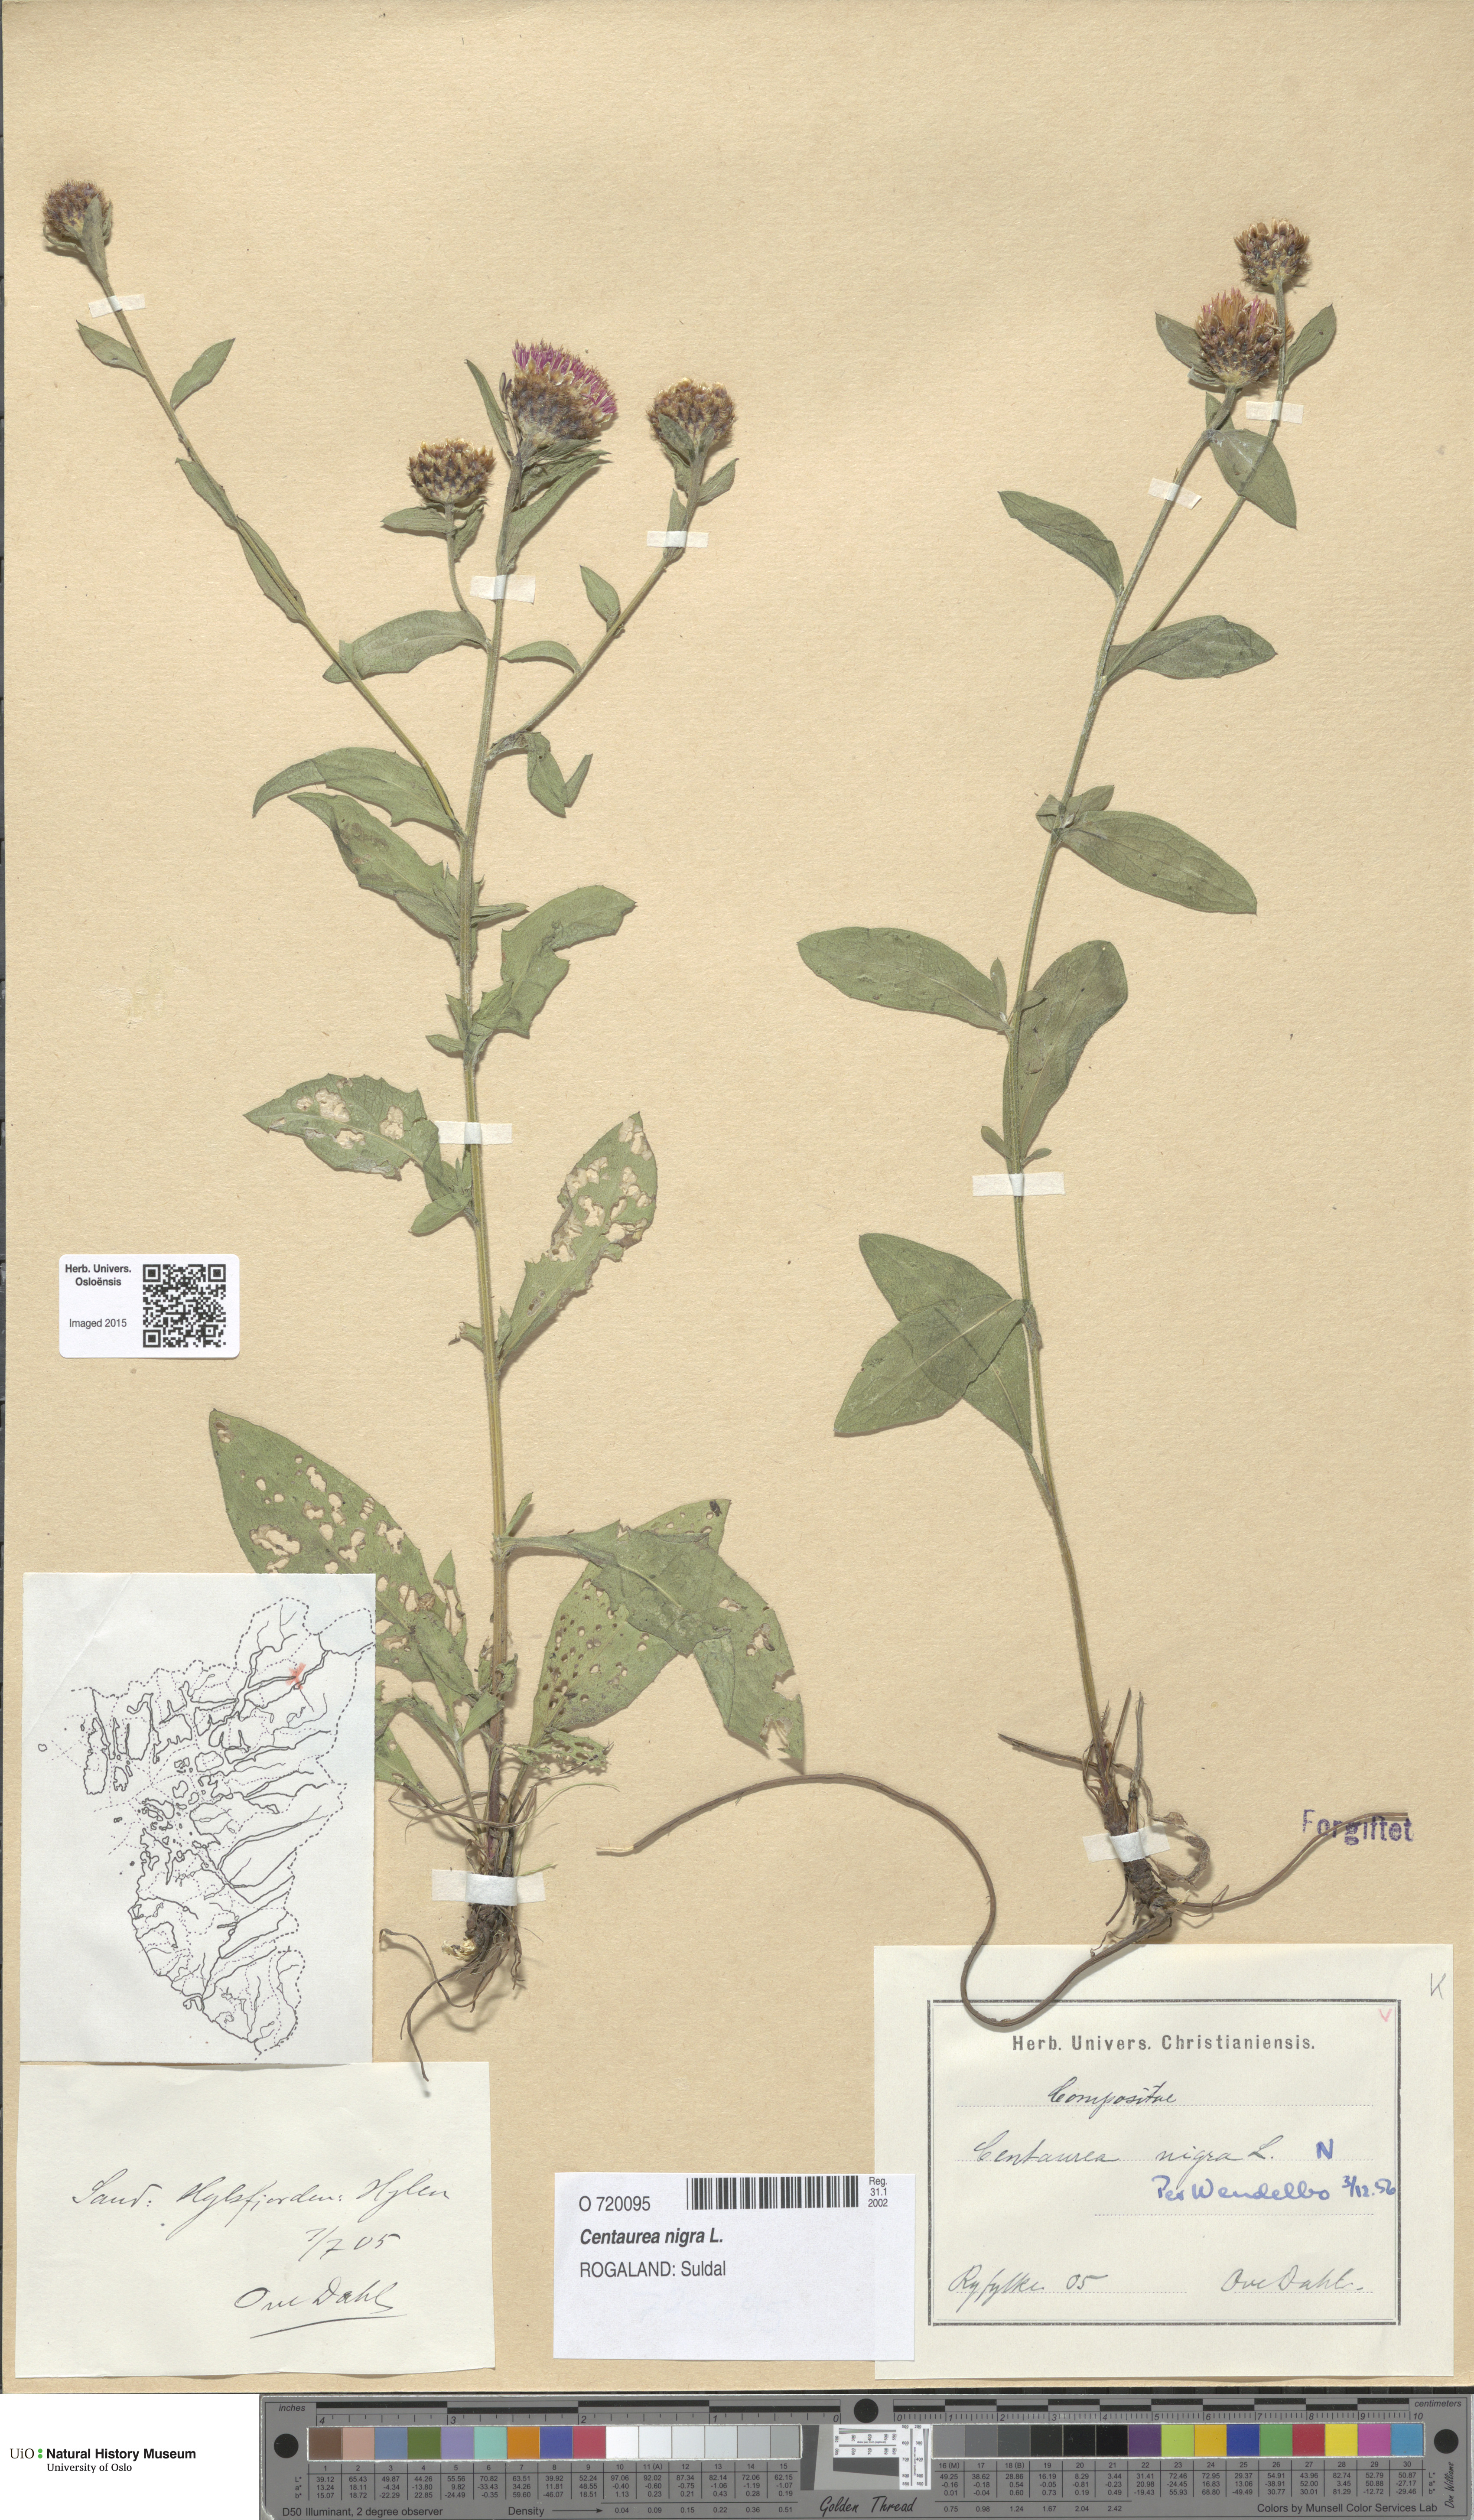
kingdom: Plantae
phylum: Tracheophyta
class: Magnoliopsida
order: Asterales
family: Asteraceae
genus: Centaurea
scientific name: Centaurea nigra
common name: Lesser knapweed
